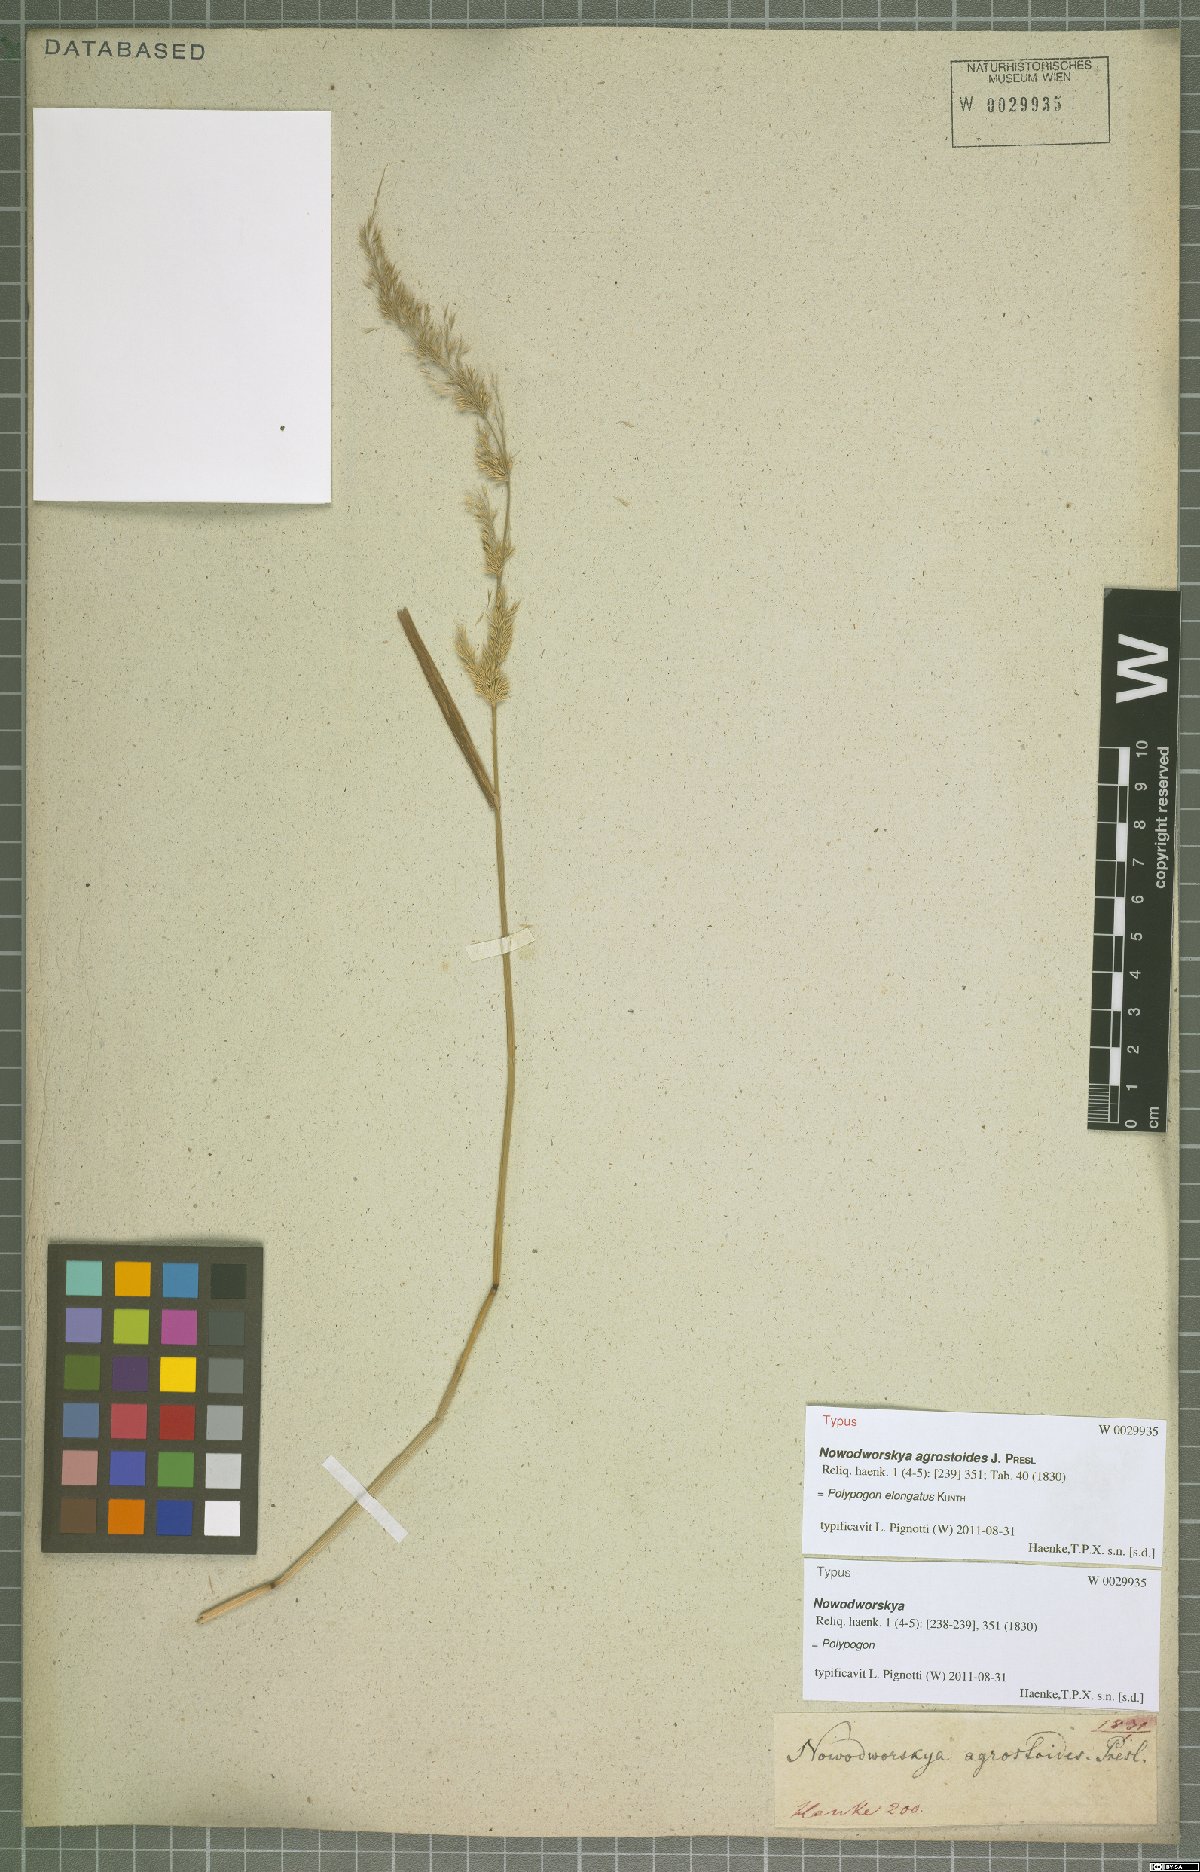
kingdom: Plantae
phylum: Tracheophyta
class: Liliopsida
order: Poales
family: Poaceae
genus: Polypogon
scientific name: Polypogon elongatus
